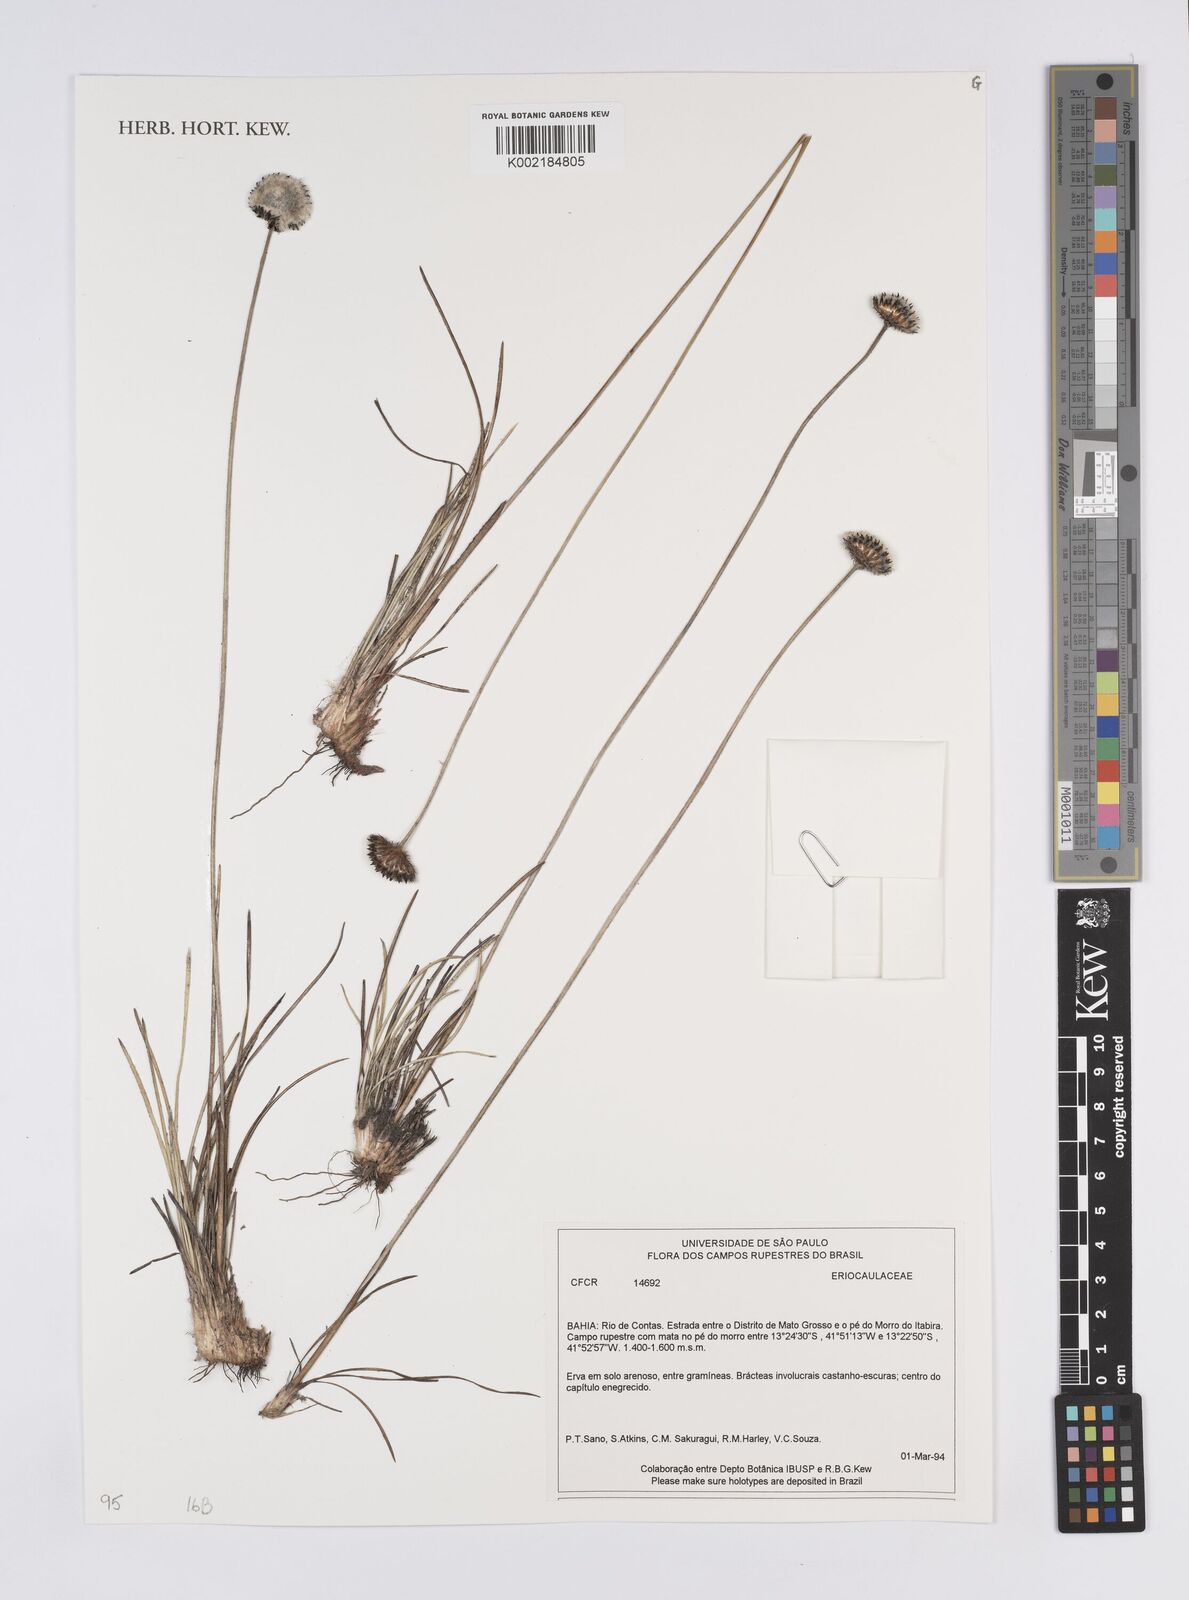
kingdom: Plantae
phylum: Tracheophyta
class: Liliopsida
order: Poales
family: Eriocaulaceae
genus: Eriocaulon
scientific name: Eriocaulon
